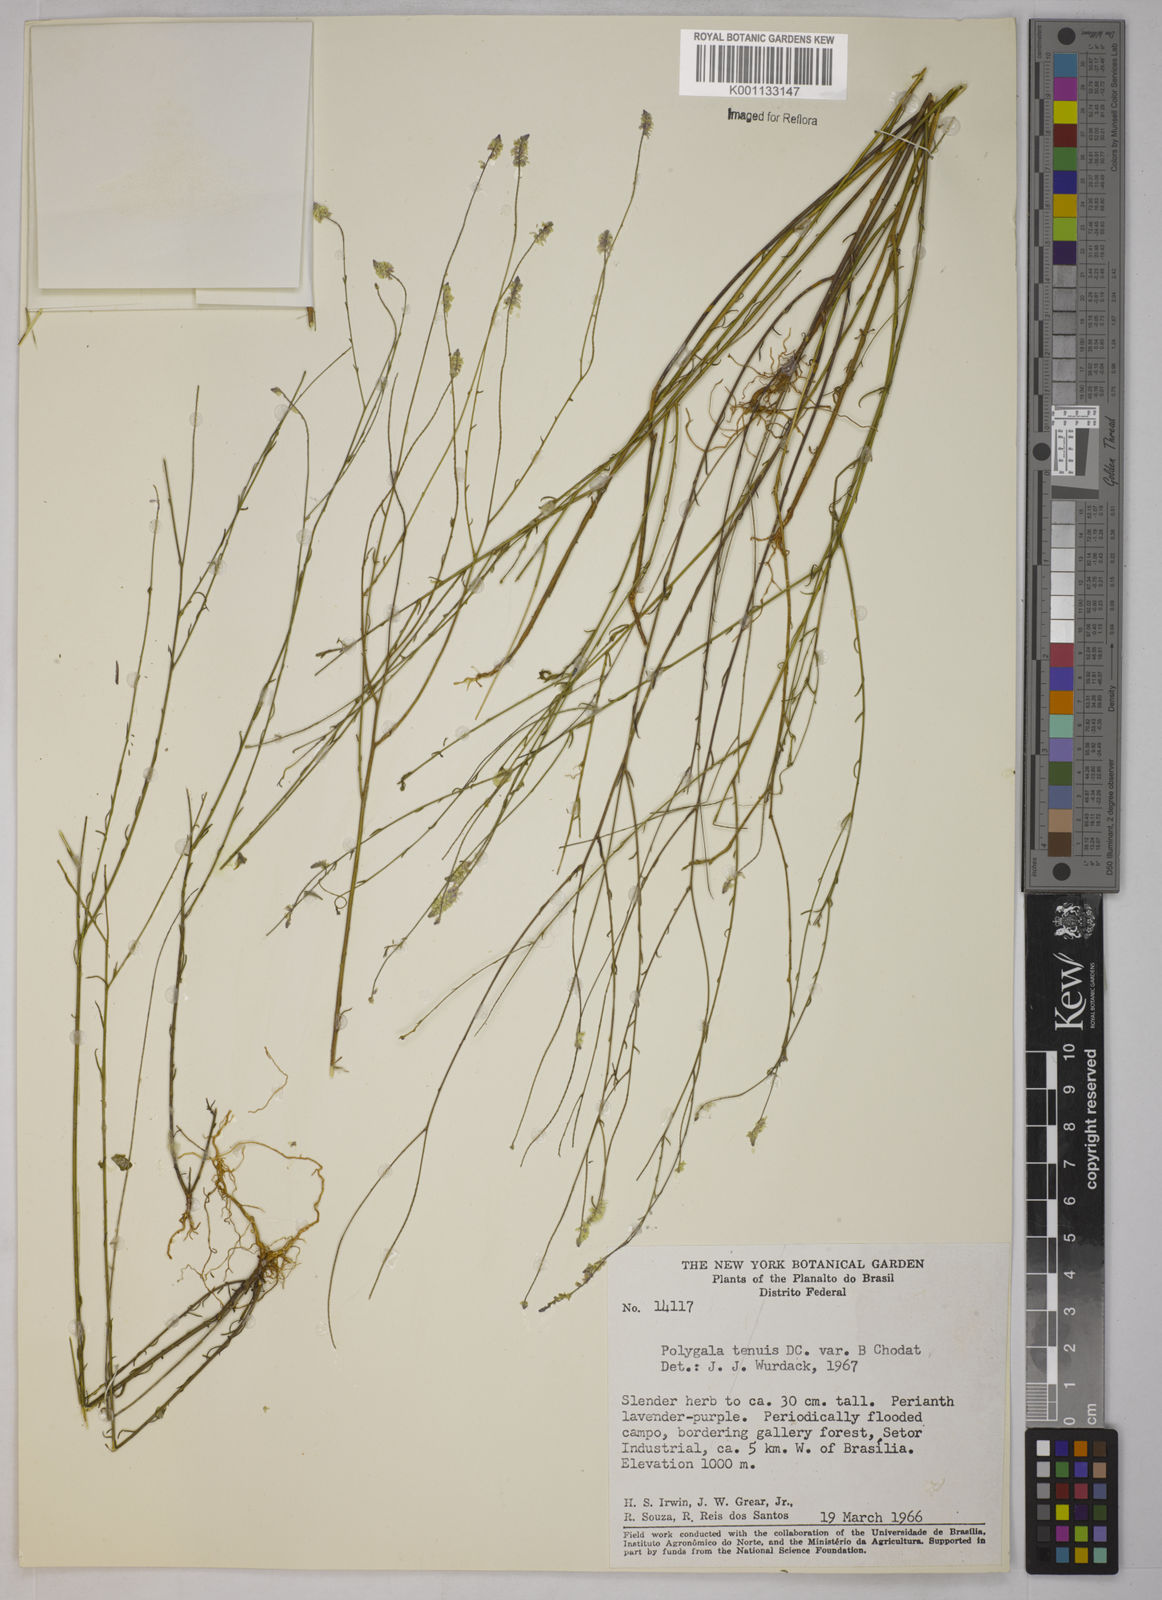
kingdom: Plantae
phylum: Tracheophyta
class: Magnoliopsida
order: Fabales
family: Polygalaceae
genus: Polygala
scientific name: Polygala tenuis
